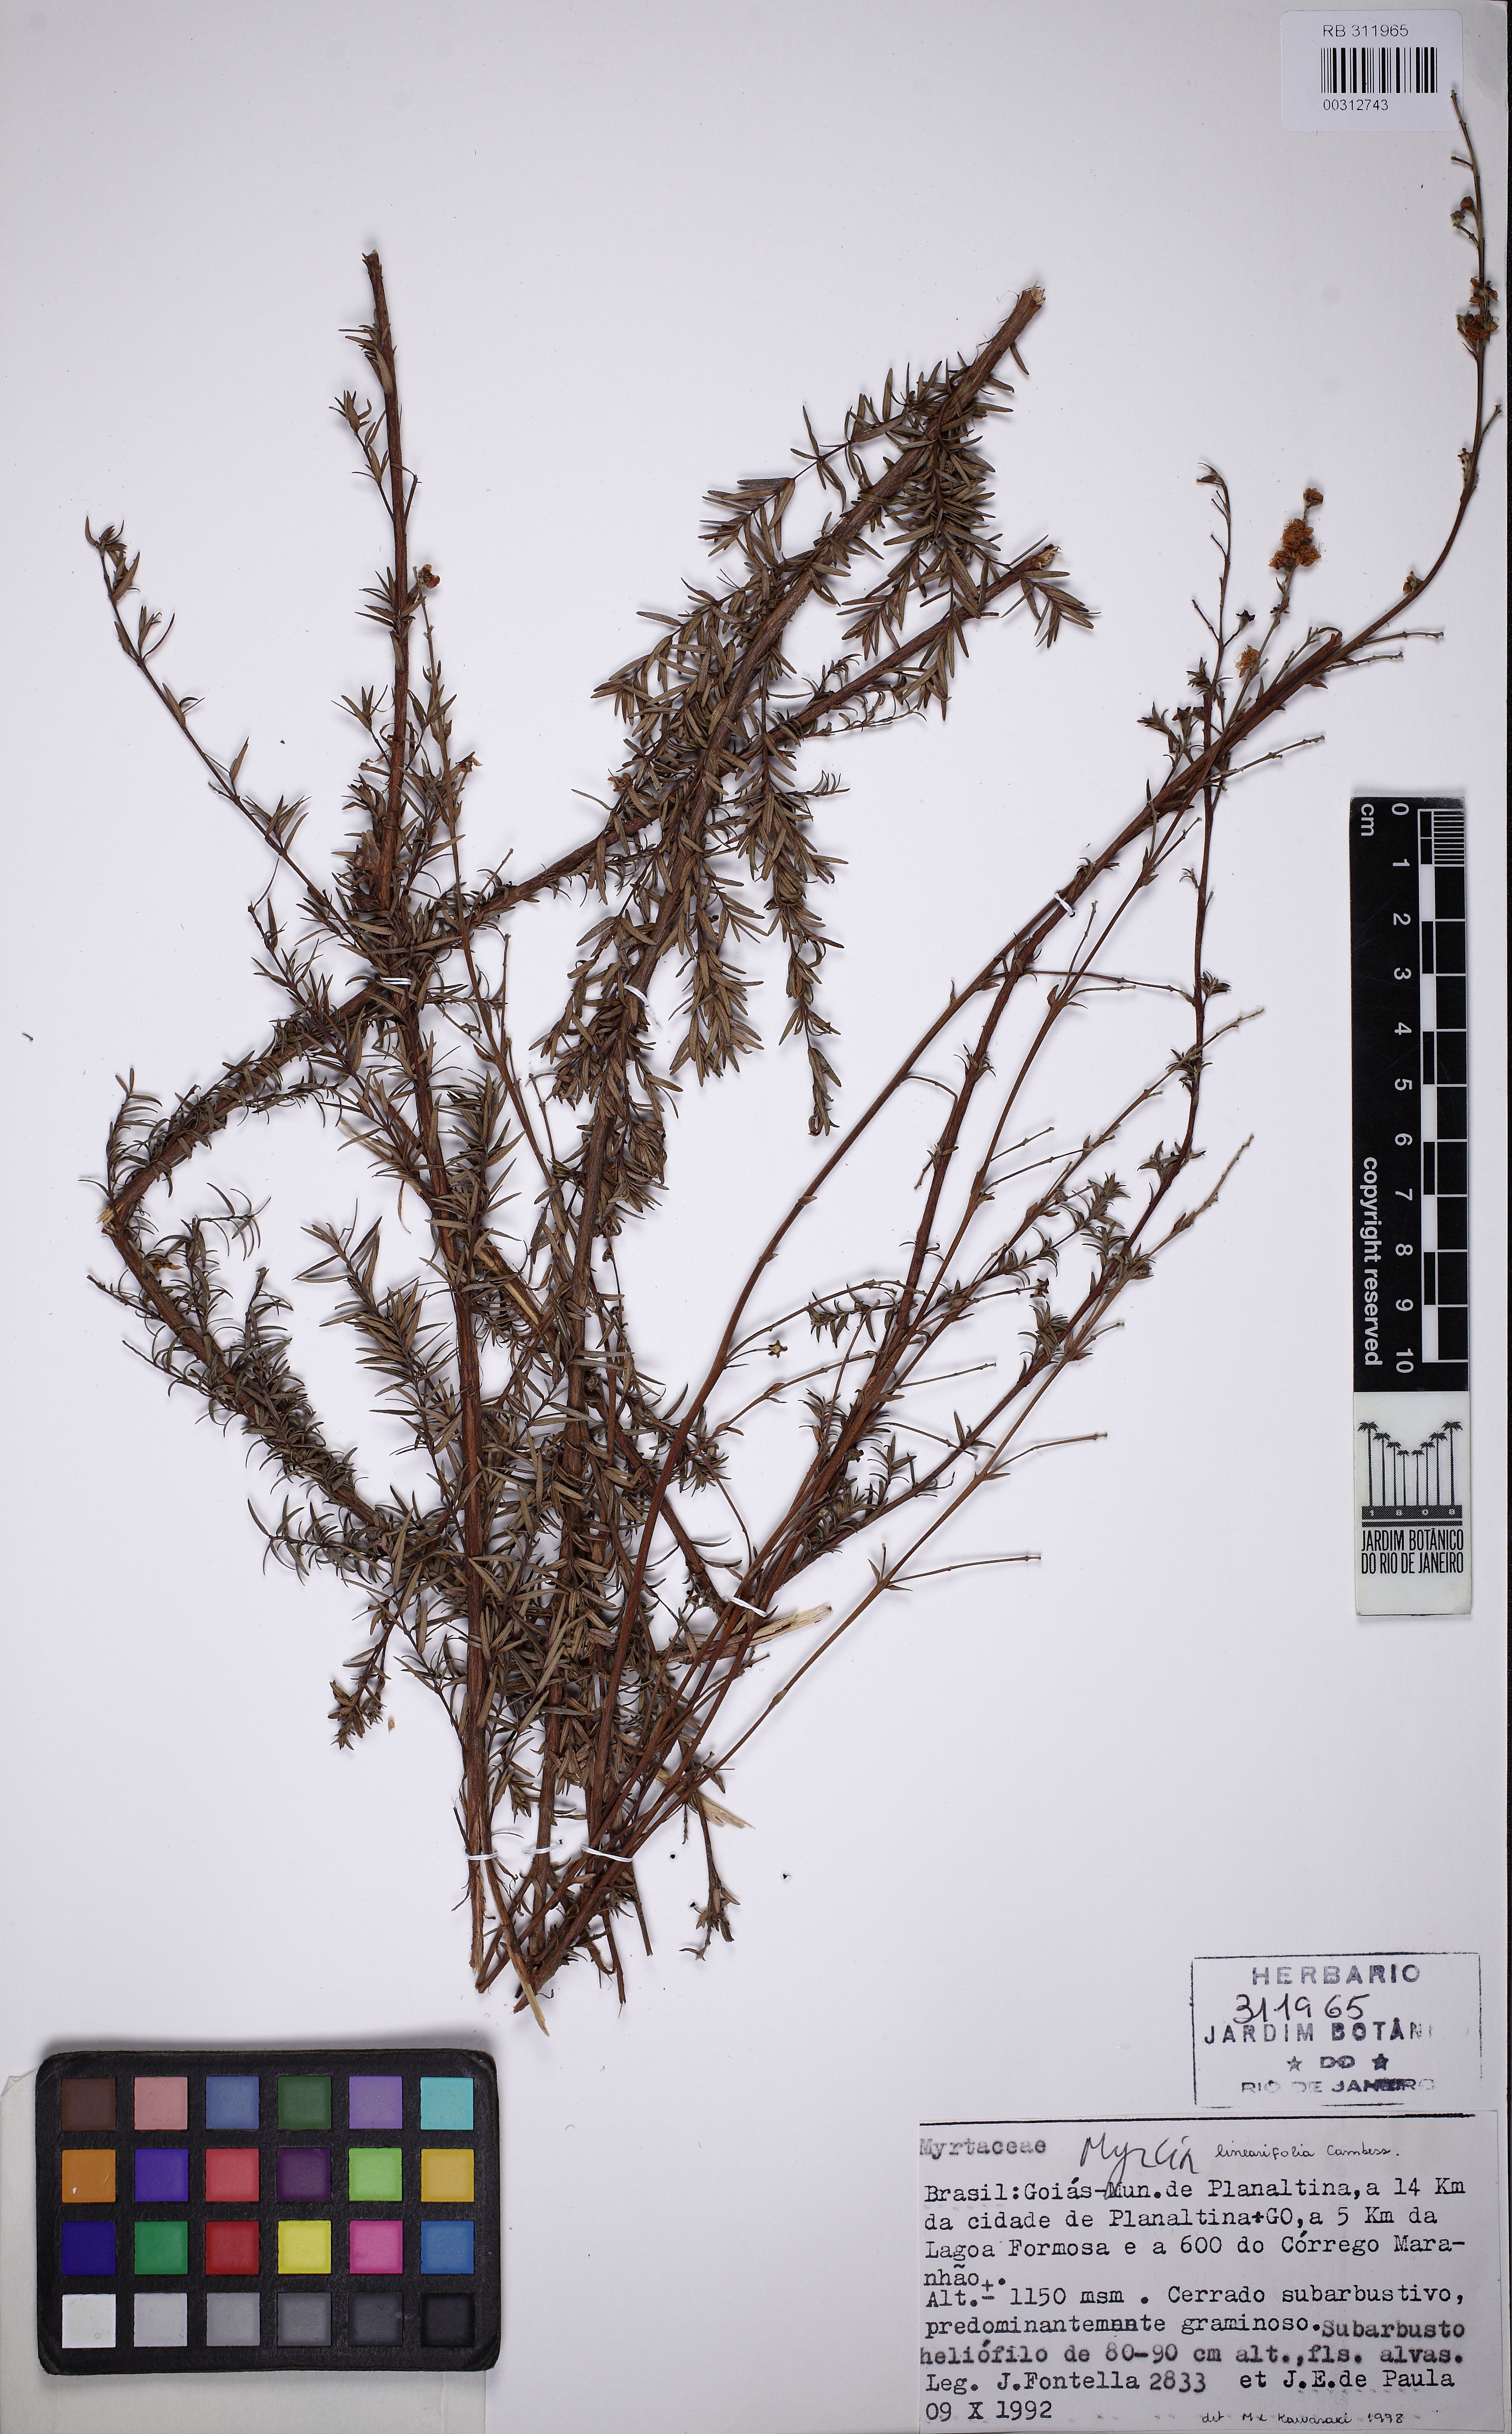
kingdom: Plantae
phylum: Tracheophyta
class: Magnoliopsida
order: Myrtales
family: Myrtaceae
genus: Myrcia
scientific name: Myrcia linearifolia
